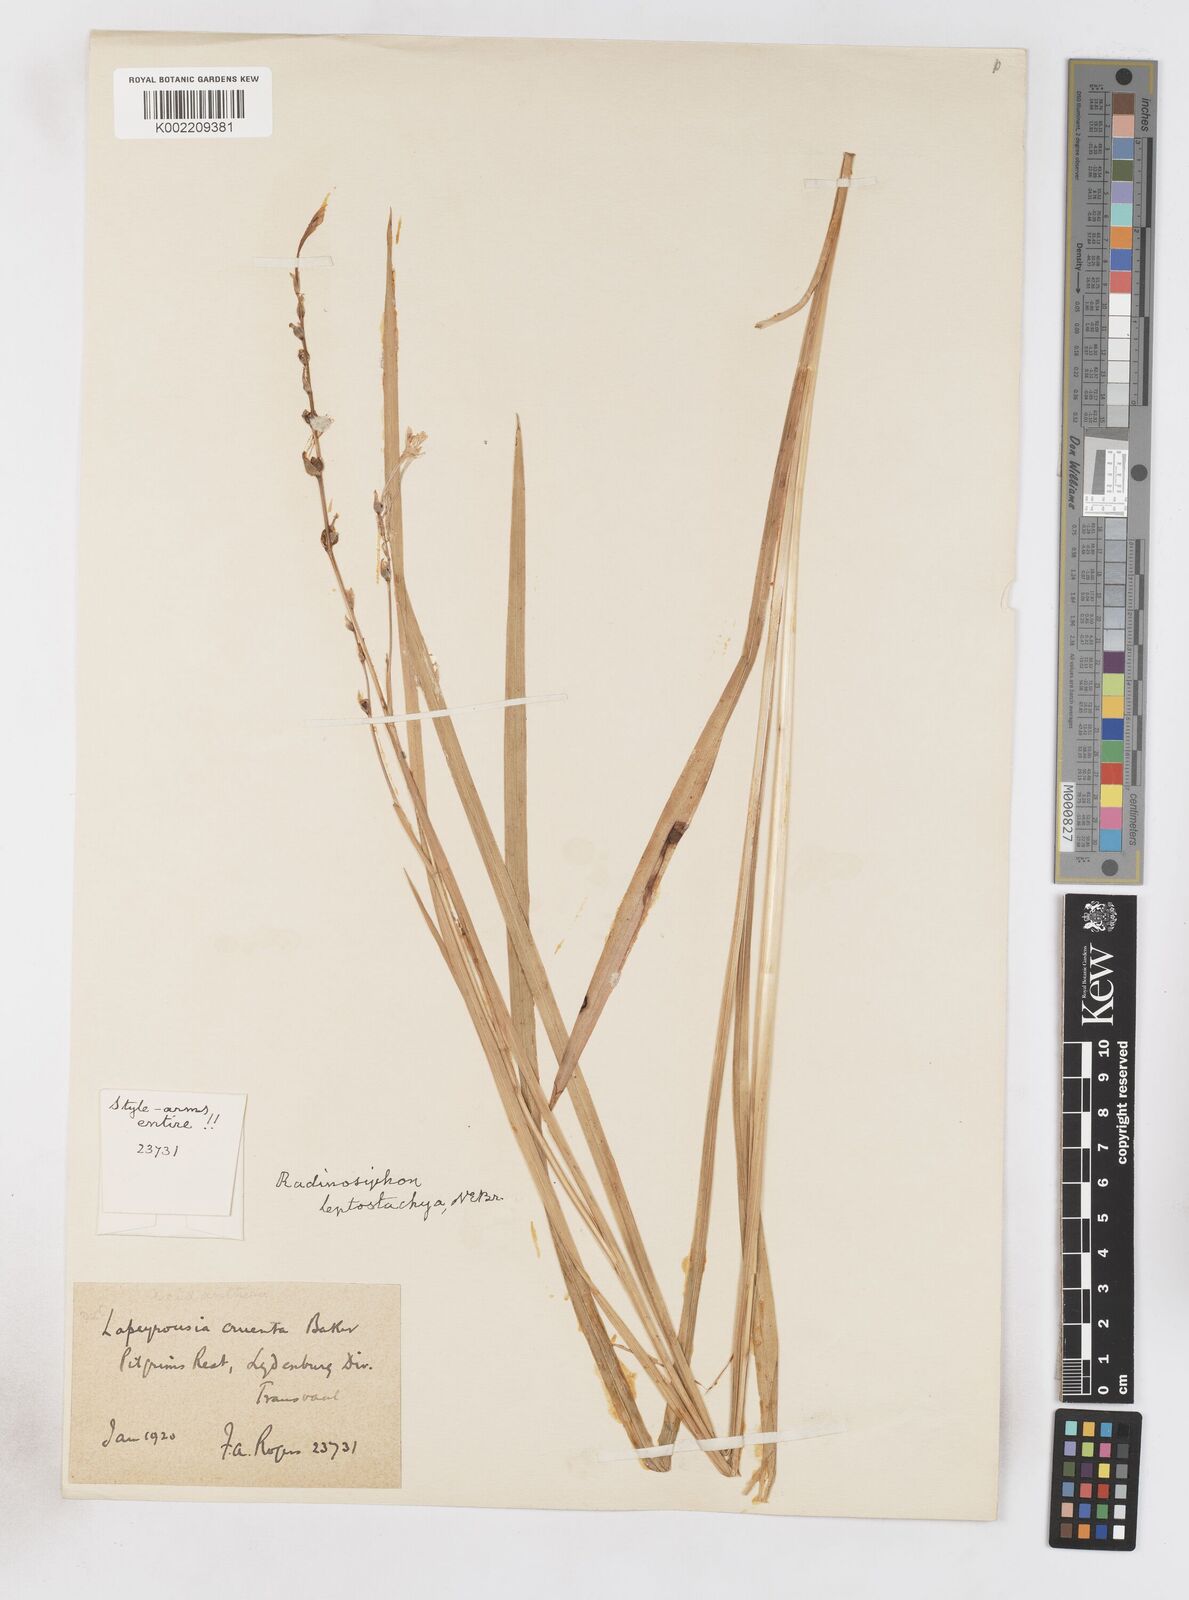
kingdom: Plantae
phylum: Tracheophyta
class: Liliopsida
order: Asparagales
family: Iridaceae
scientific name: Iridaceae
